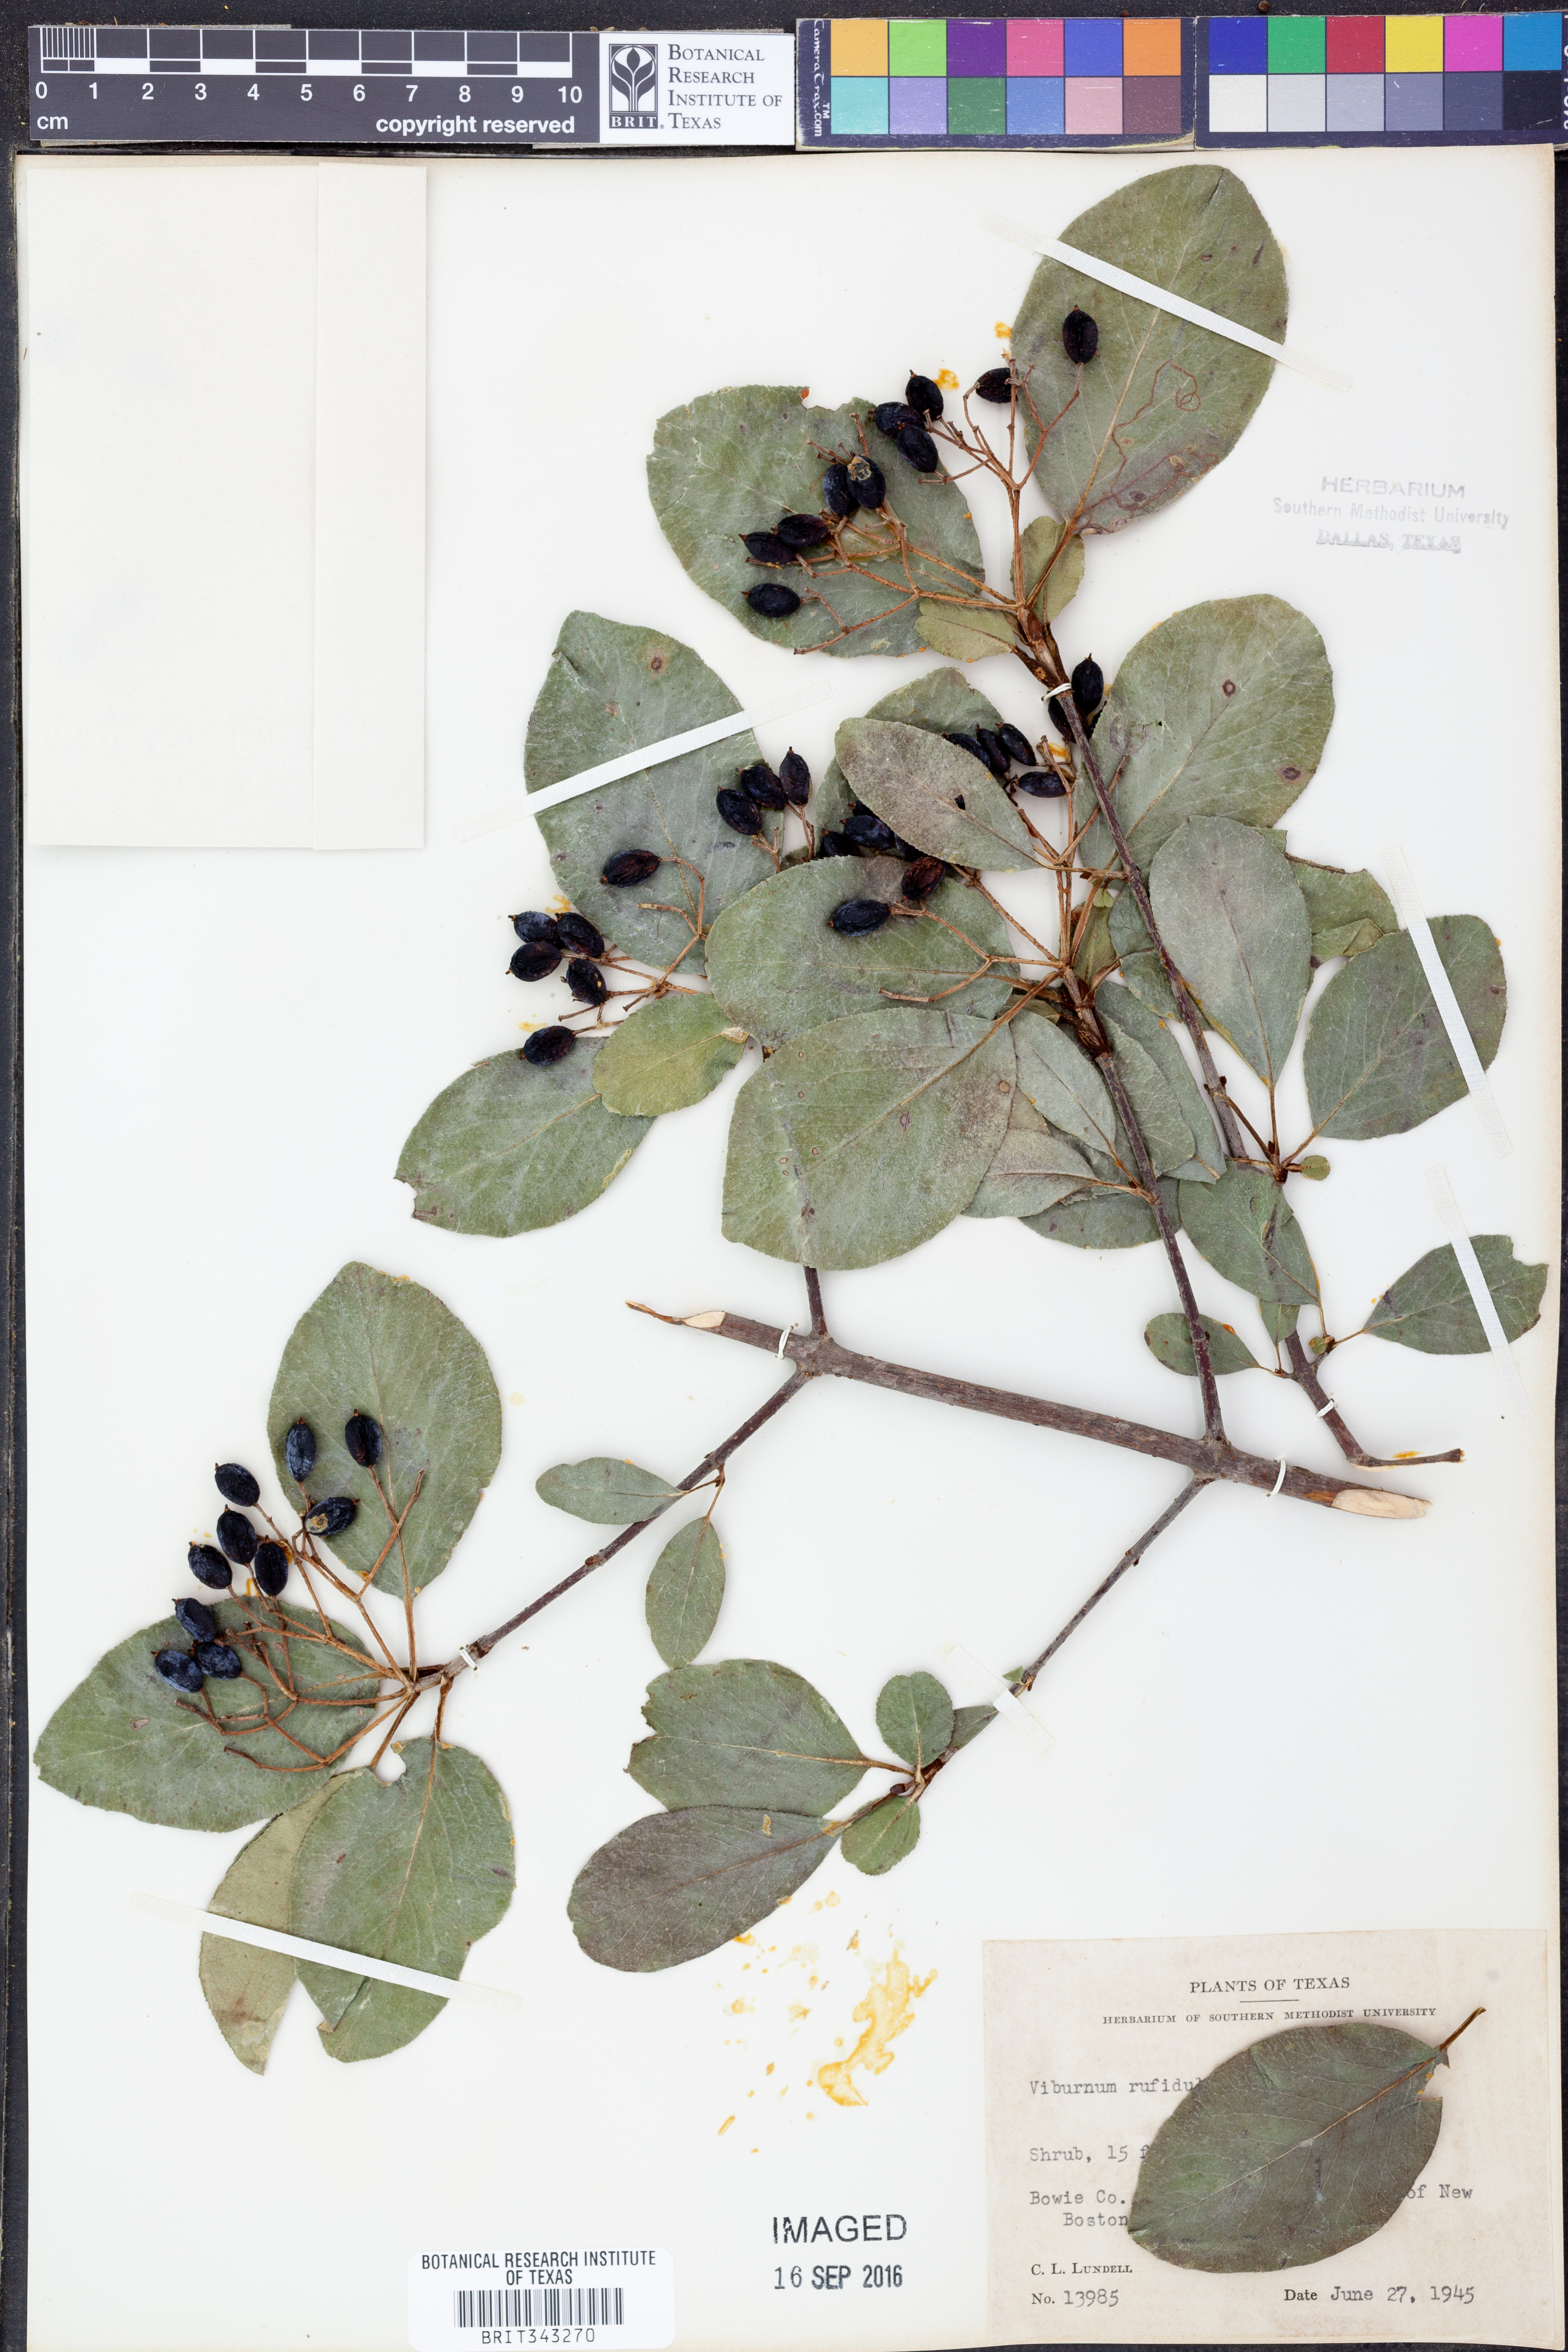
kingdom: Plantae
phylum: Tracheophyta
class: Magnoliopsida
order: Dipsacales
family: Viburnaceae
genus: Viburnum
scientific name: Viburnum rufidulum
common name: Blue haw
